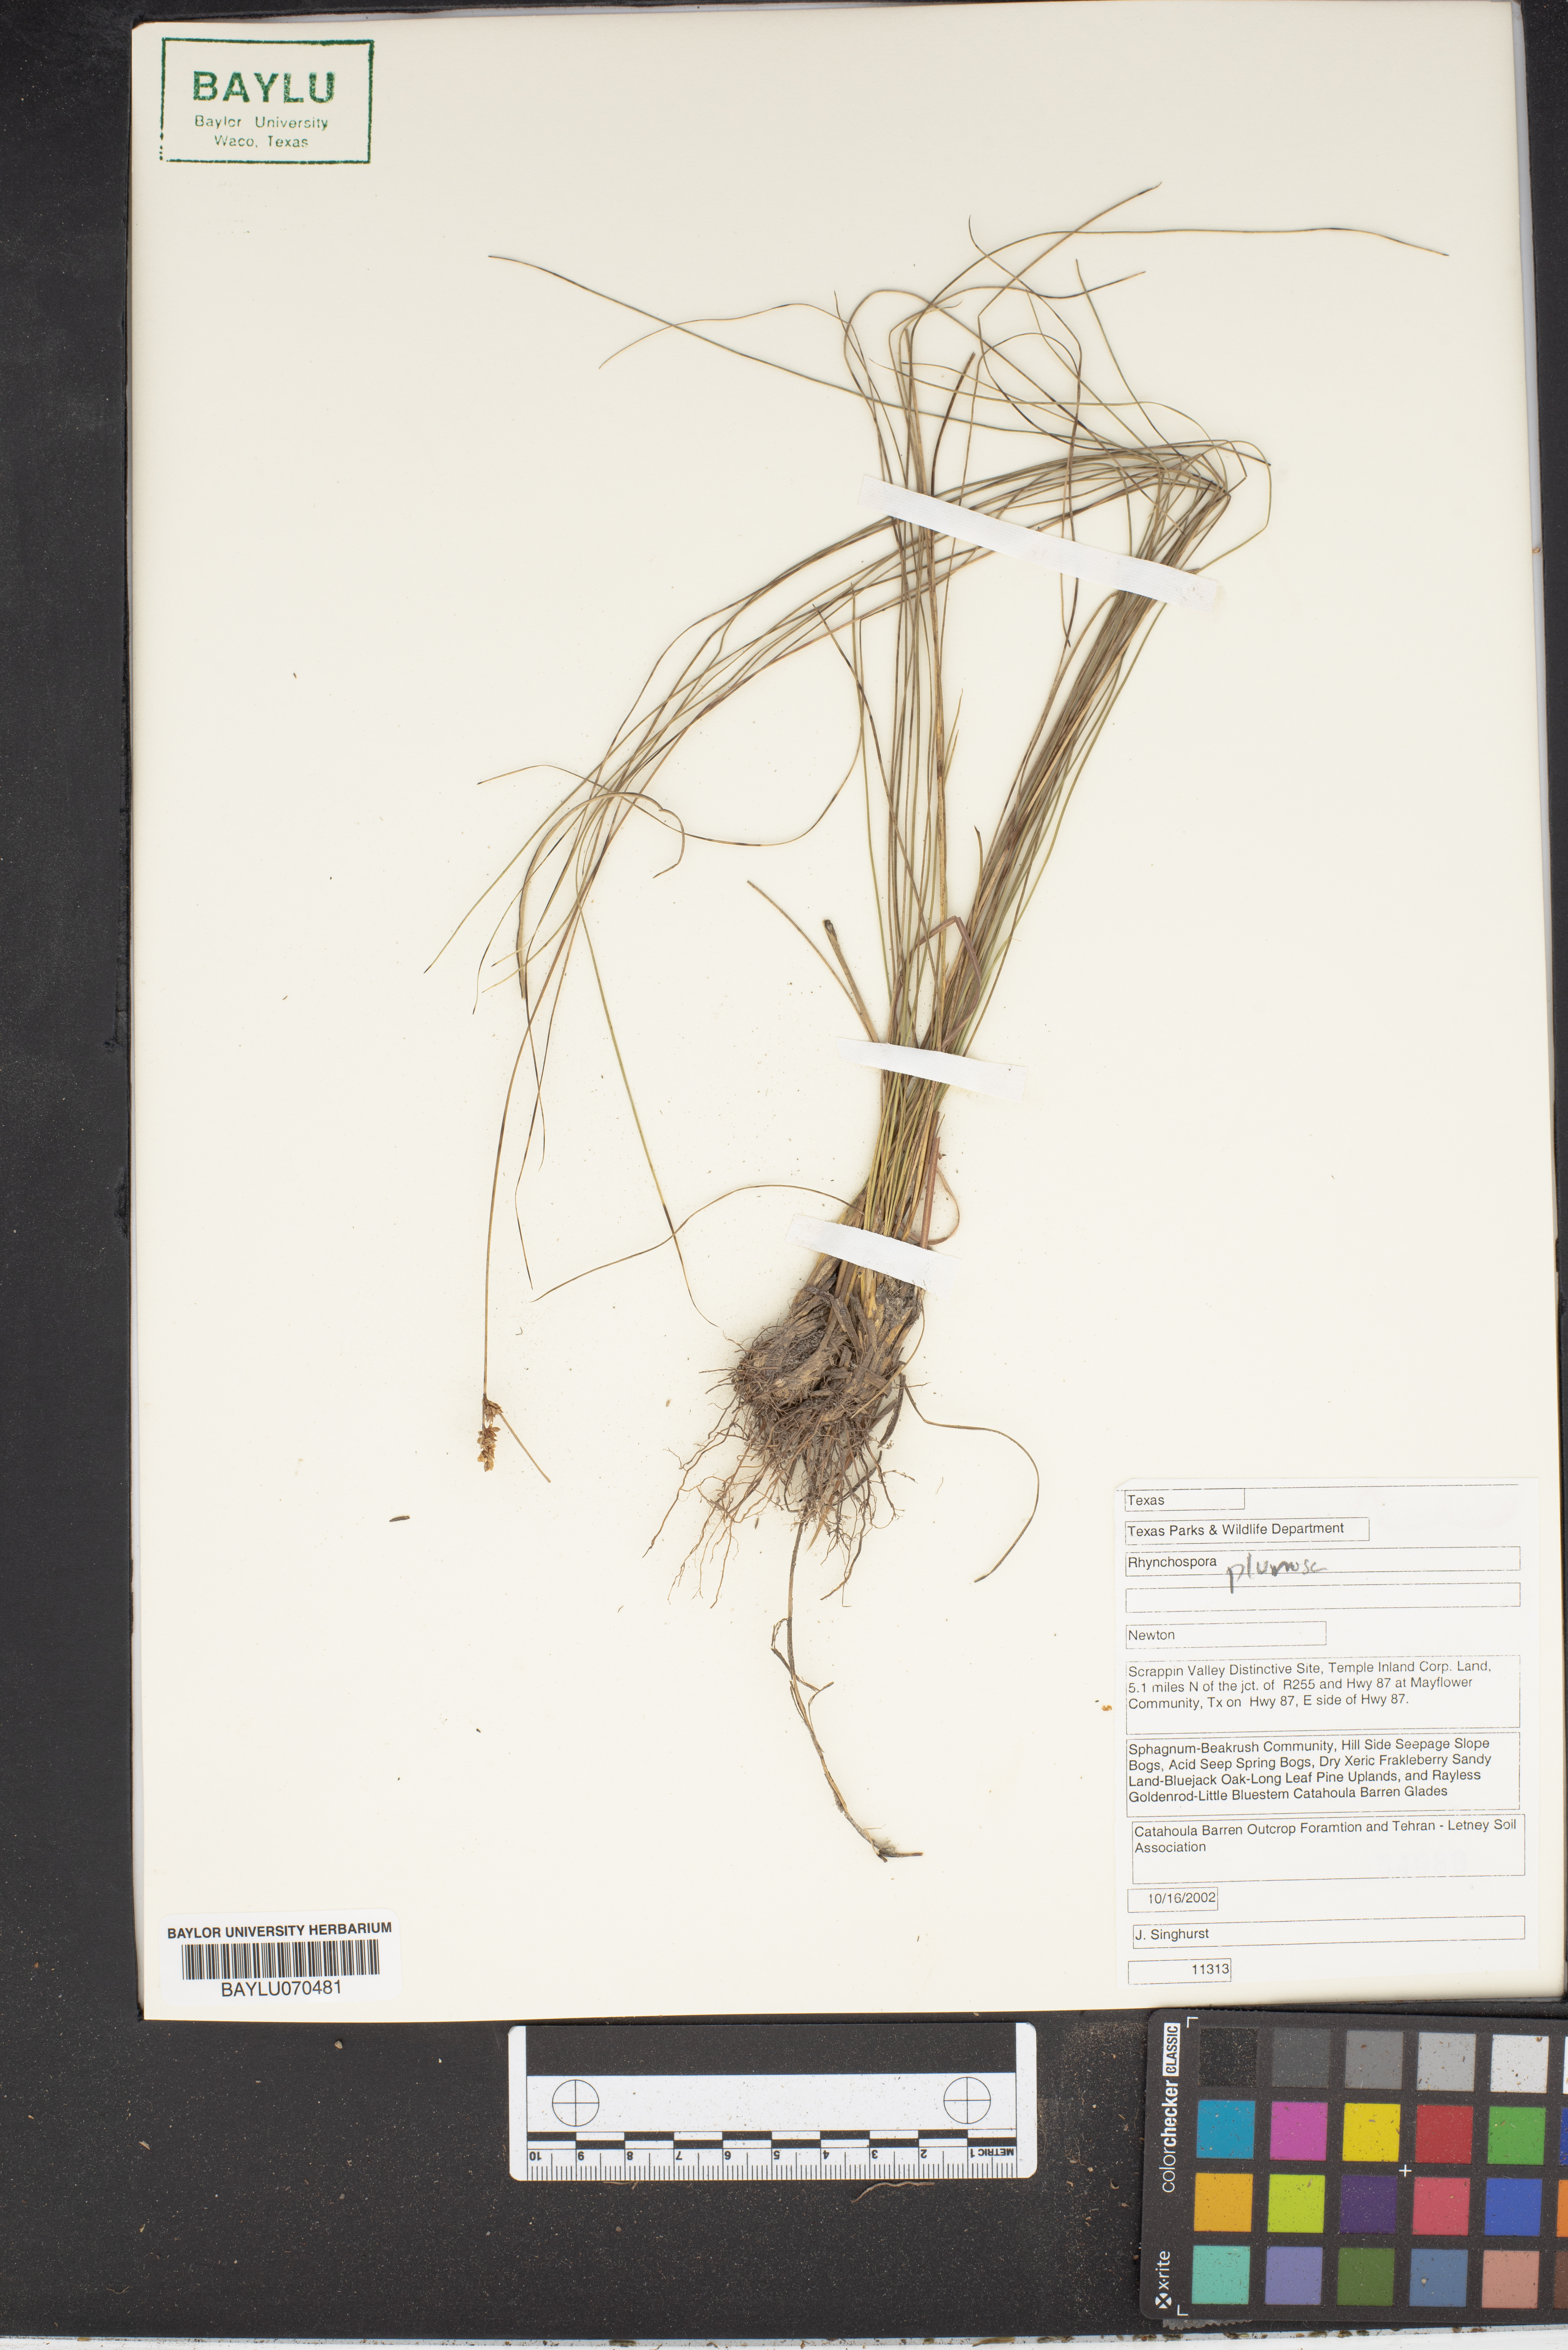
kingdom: Plantae
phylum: Tracheophyta
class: Liliopsida
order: Poales
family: Cyperaceae
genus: Rhynchospora
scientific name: Rhynchospora plumosa
